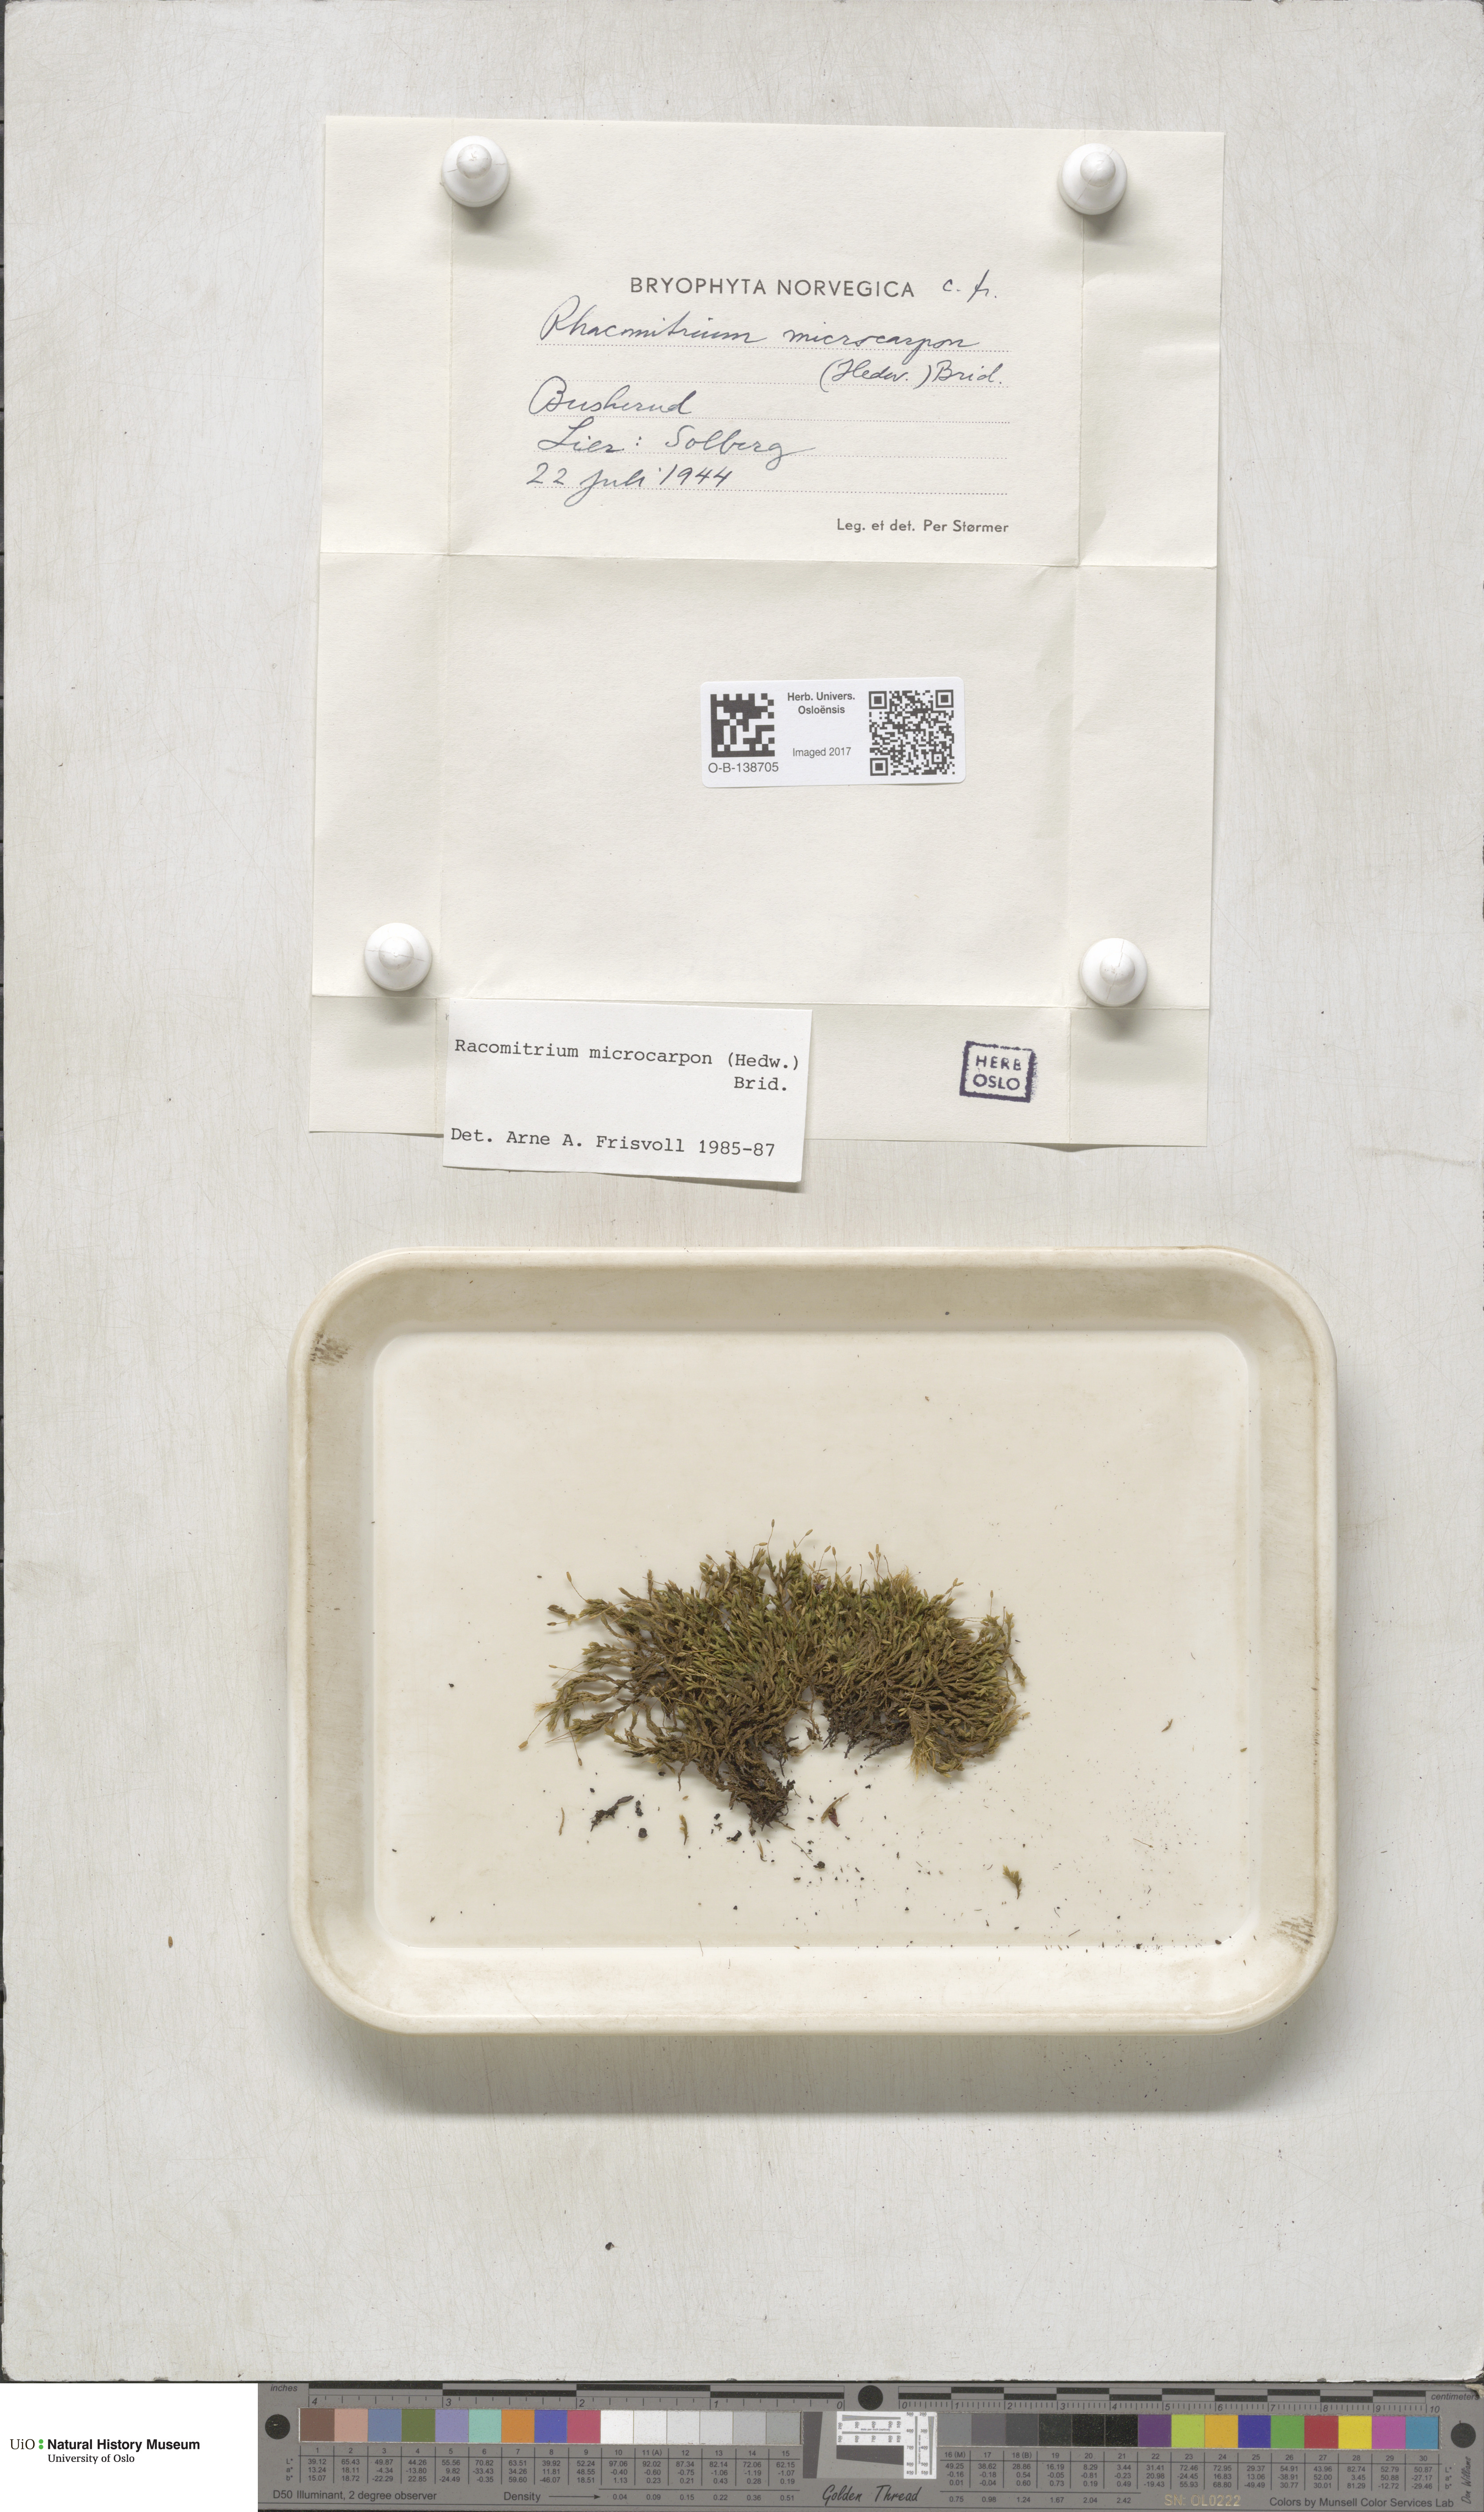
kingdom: Plantae
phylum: Bryophyta
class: Bryopsida
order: Grimmiales
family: Grimmiaceae
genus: Bucklandiella
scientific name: Bucklandiella microcarpos
